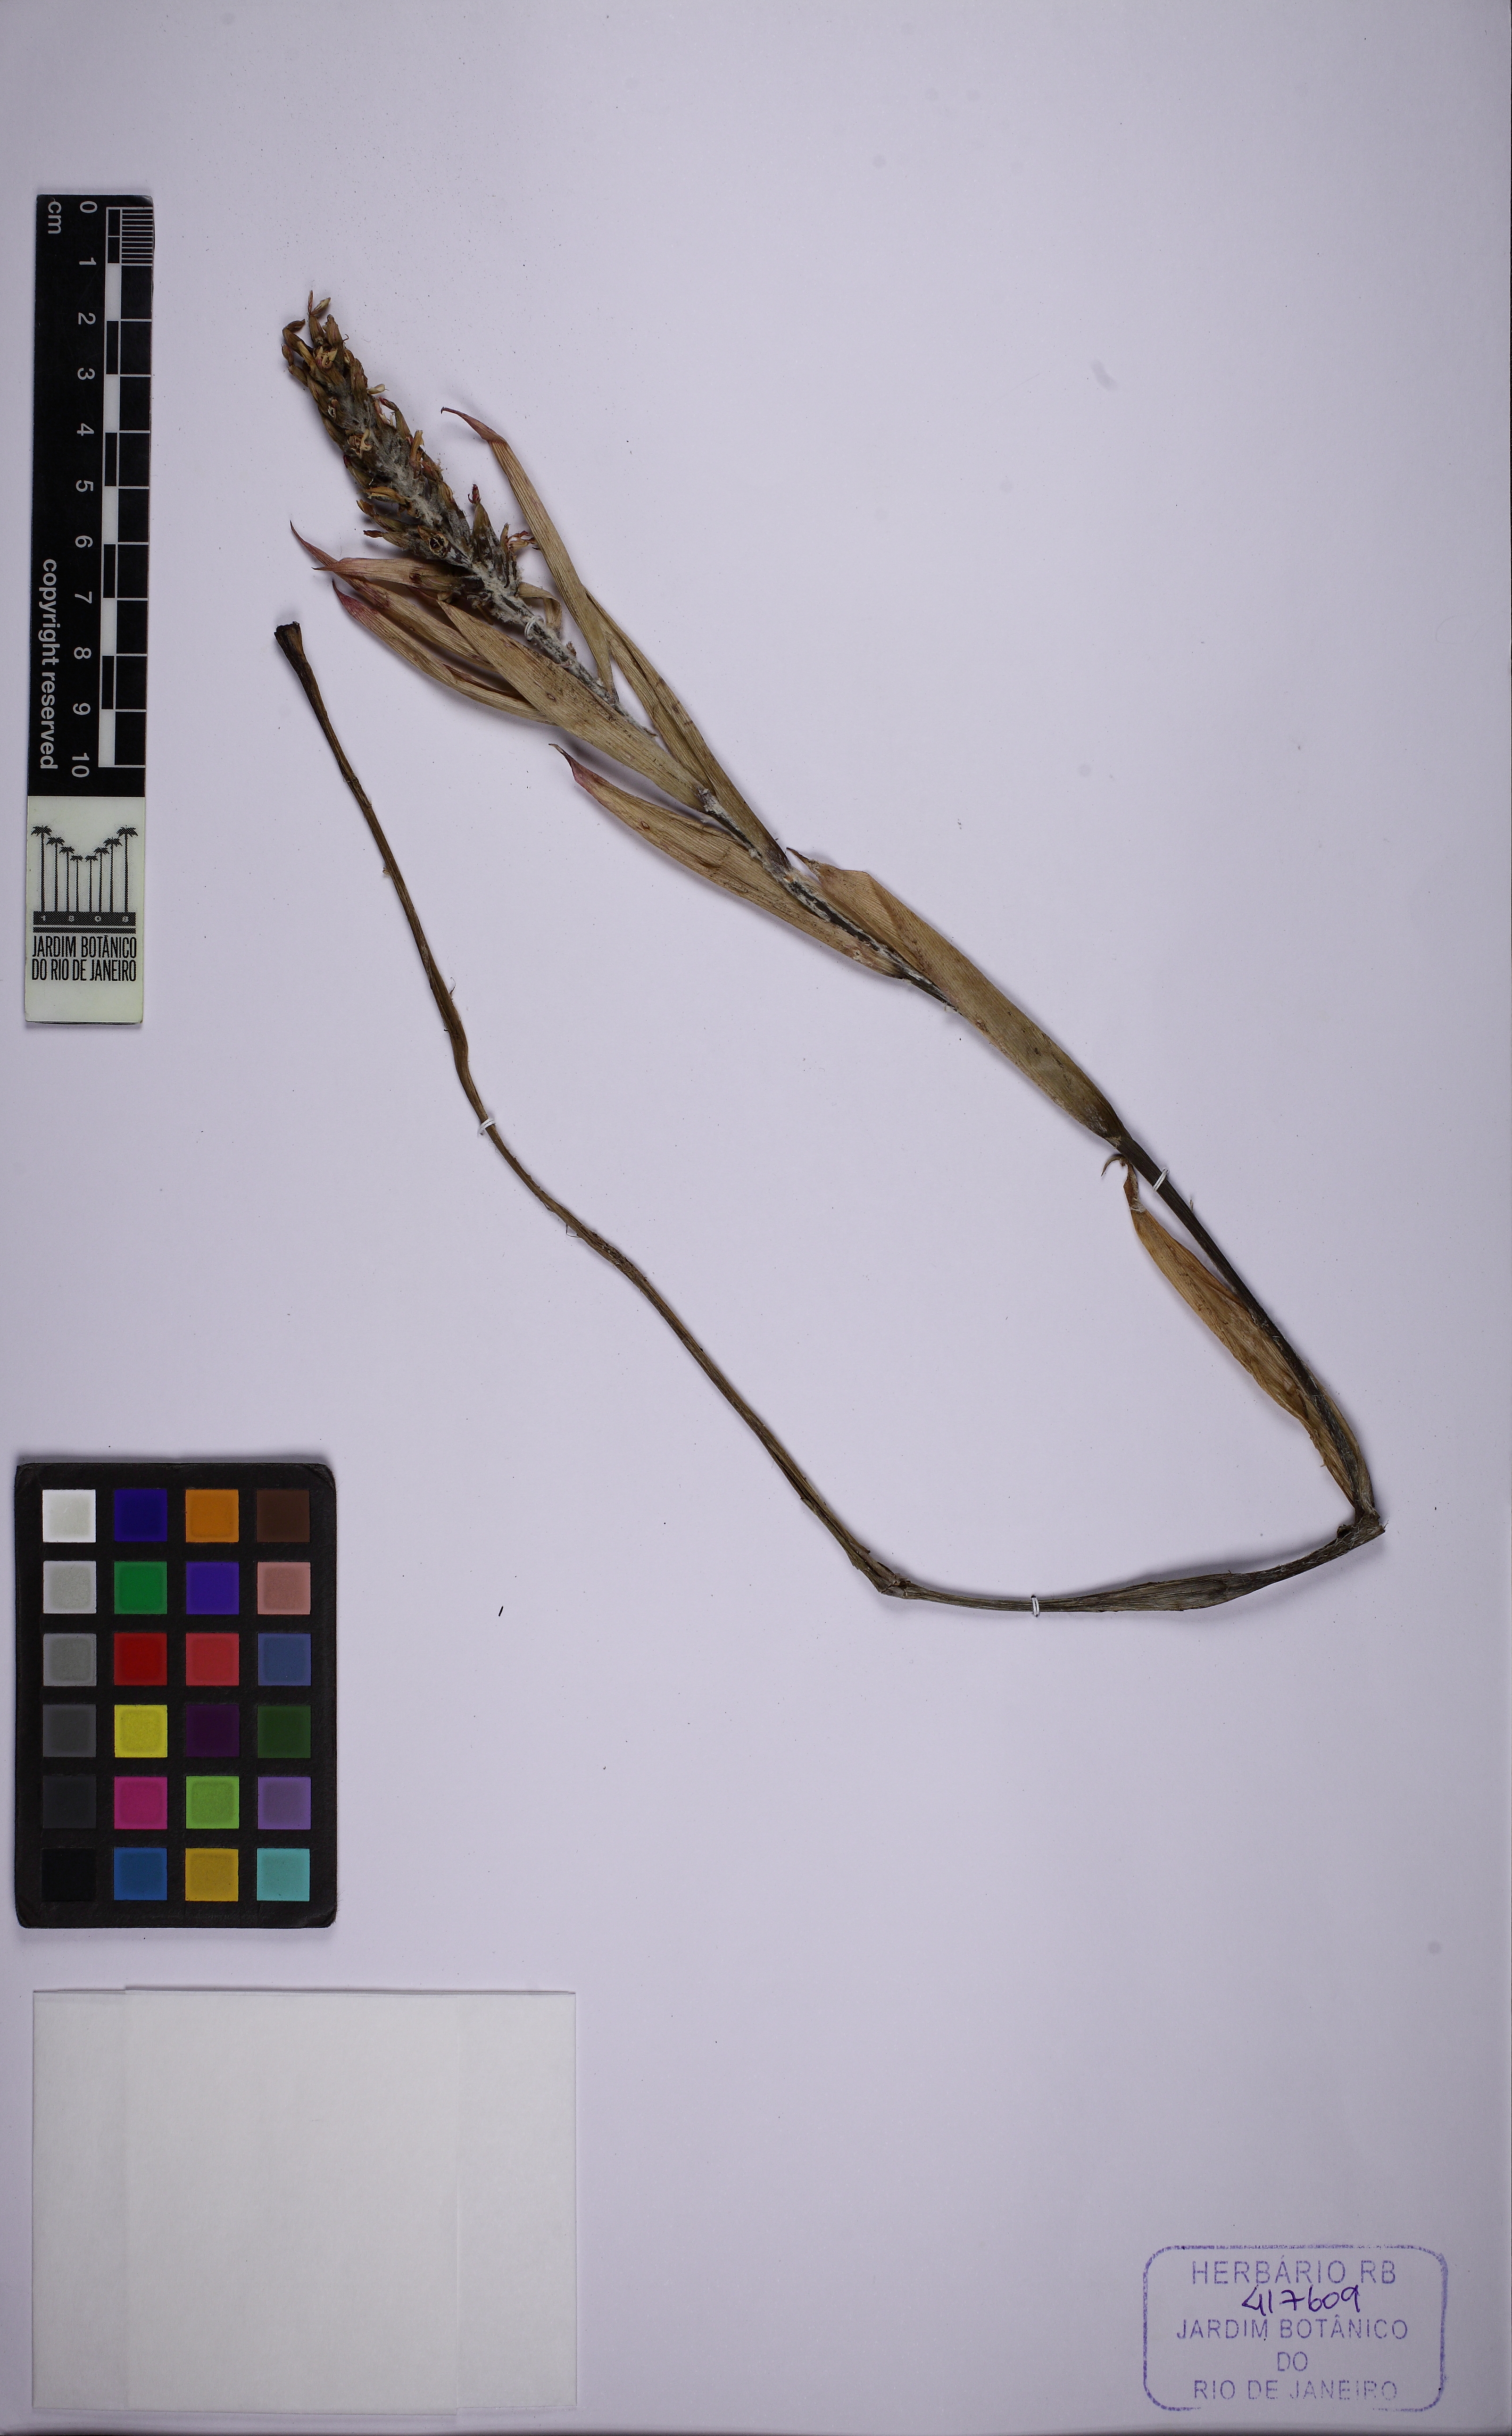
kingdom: Plantae
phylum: Tracheophyta
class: Liliopsida
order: Poales
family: Bromeliaceae
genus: Aechmea
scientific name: Aechmea nudicaulis
